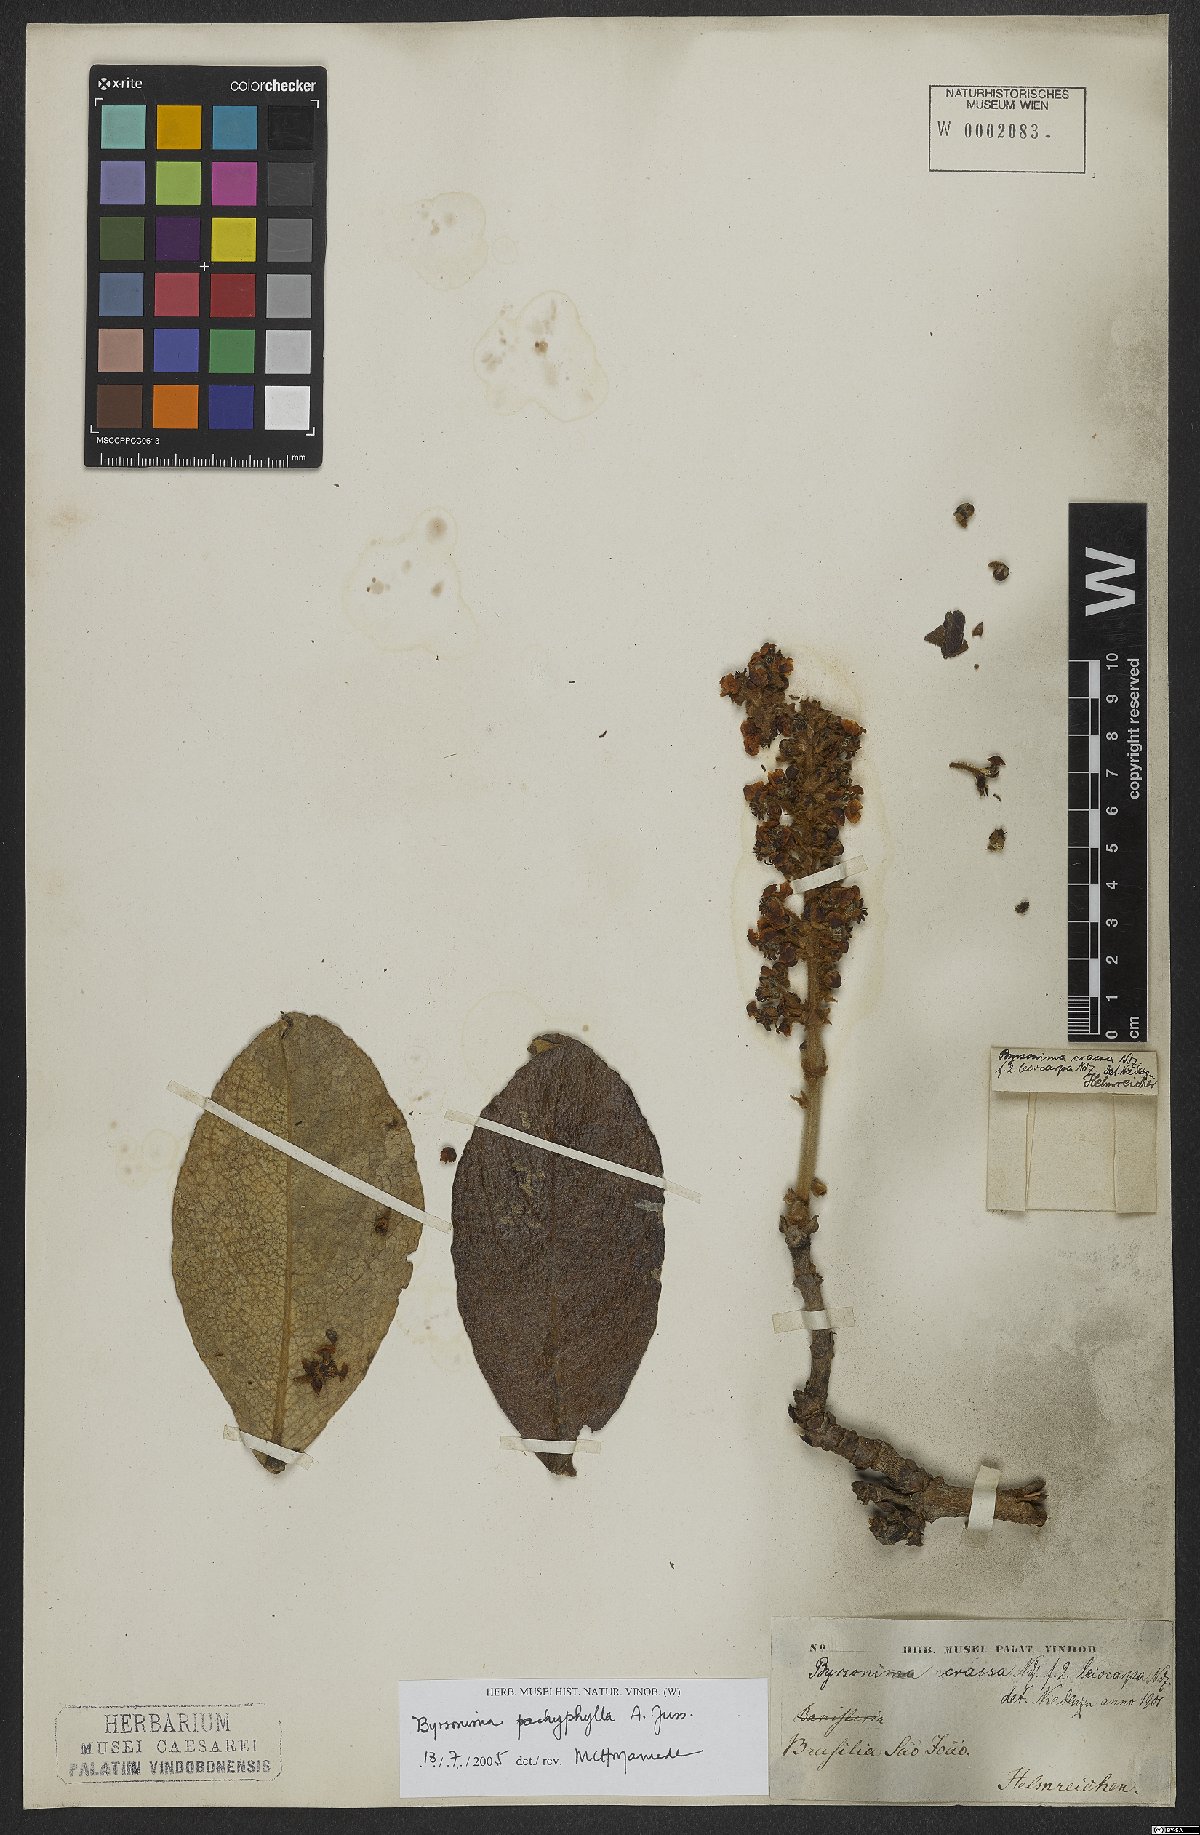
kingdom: Plantae
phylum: Tracheophyta
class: Magnoliopsida
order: Malpighiales
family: Malpighiaceae
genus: Byrsonima
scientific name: Byrsonima pachyphylla
